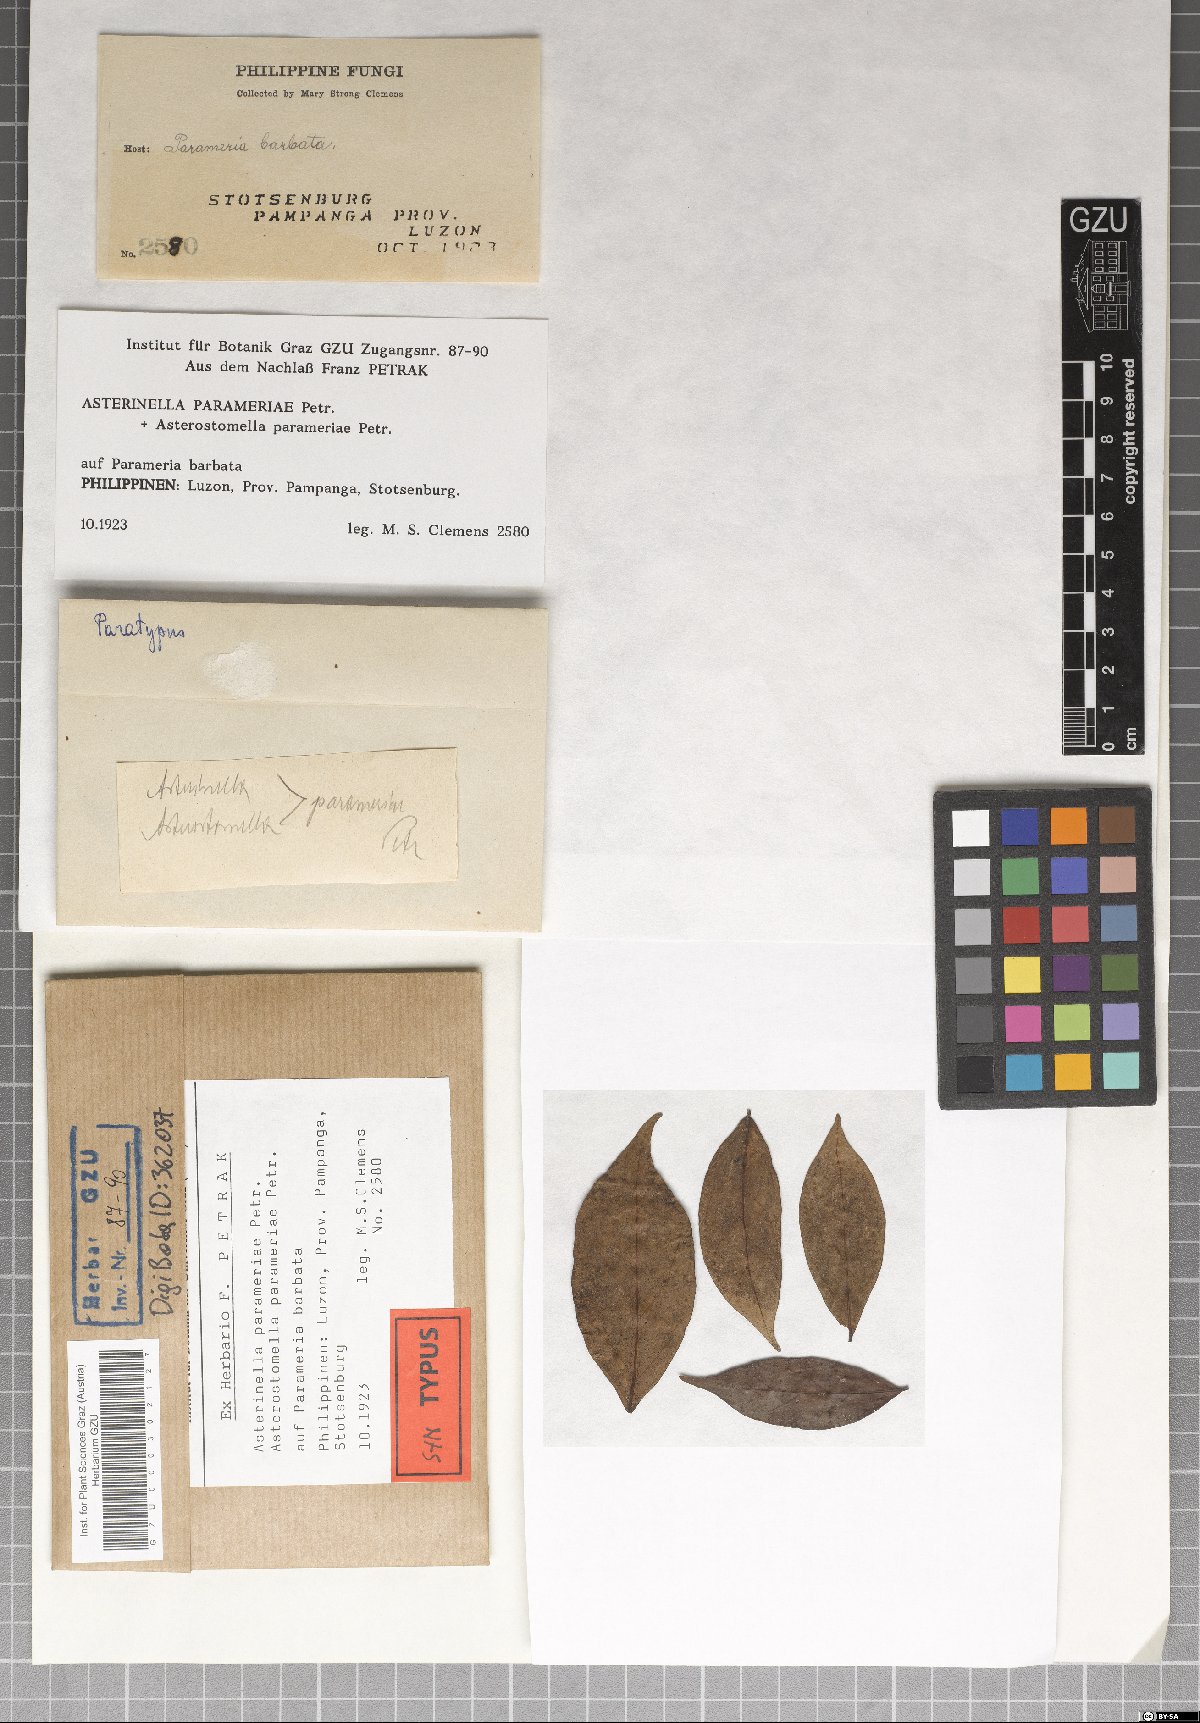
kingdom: Fungi
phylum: Ascomycota
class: Dothideomycetes
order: Microthyriales
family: Microthyriaceae
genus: Asterinella
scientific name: Asterinella parameriae
